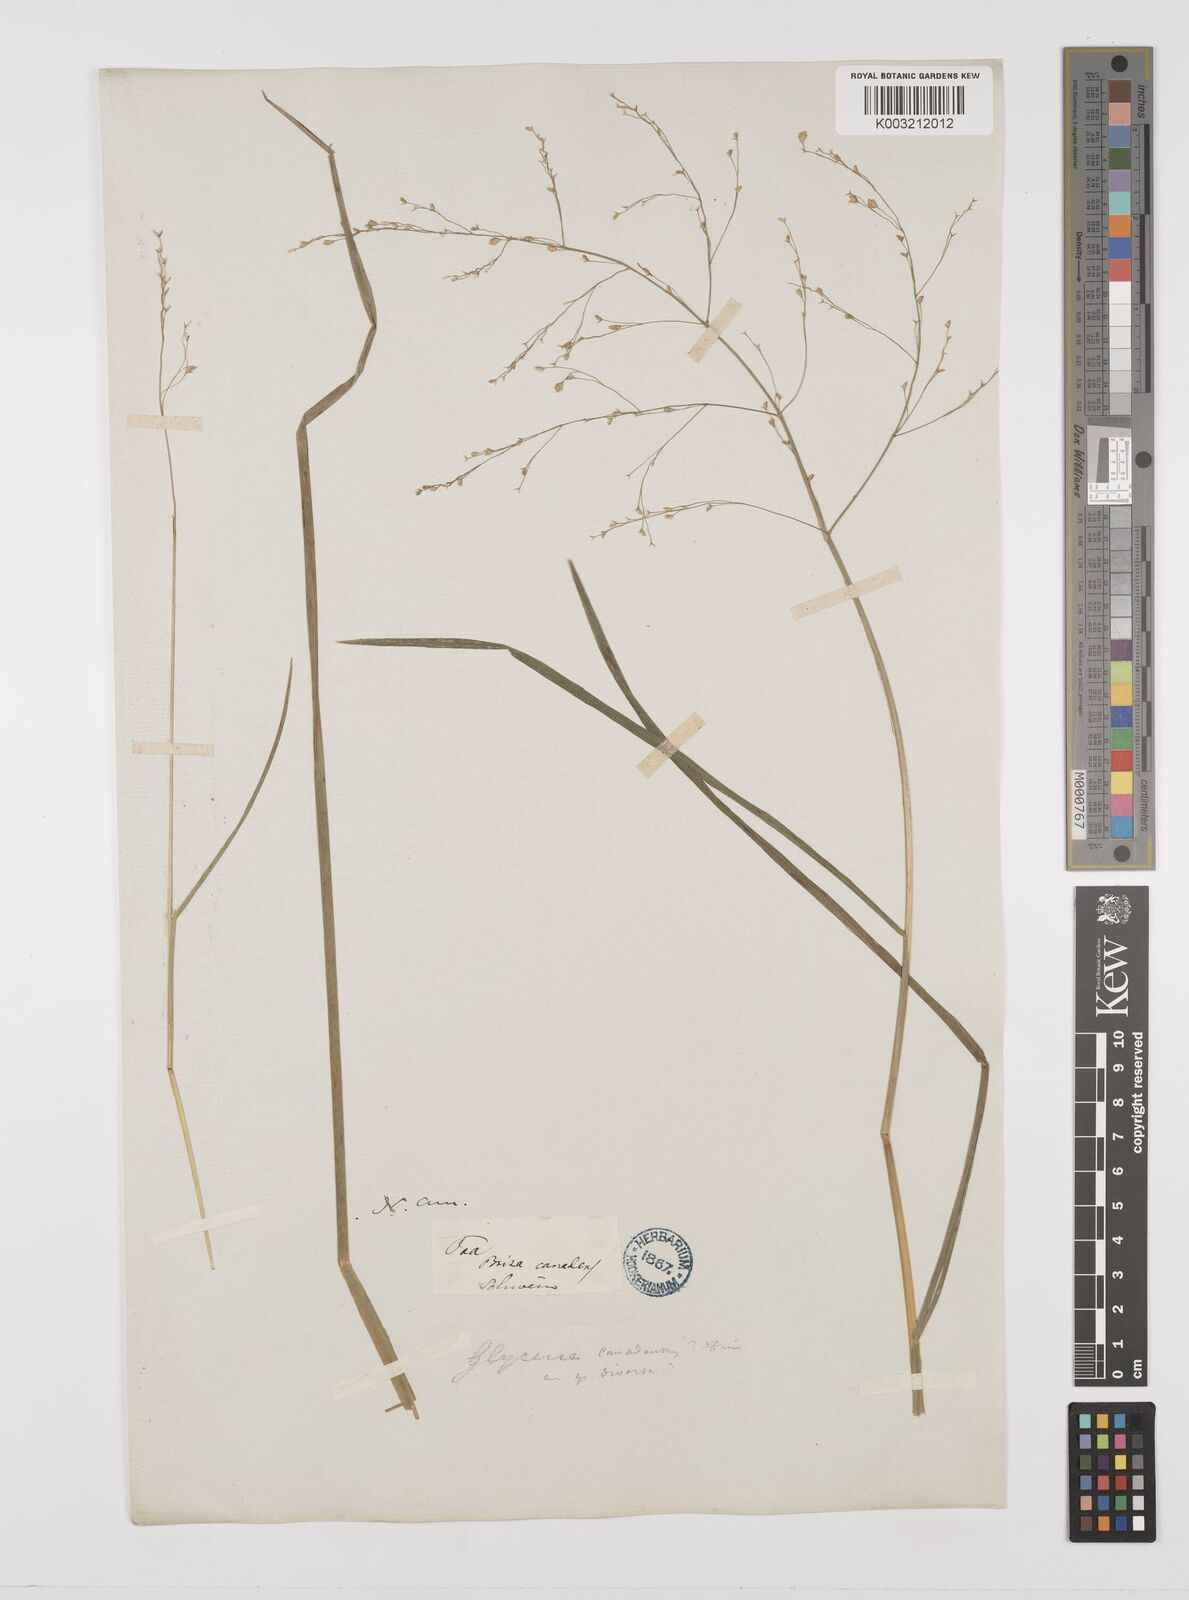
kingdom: Plantae
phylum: Tracheophyta
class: Liliopsida
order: Poales
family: Poaceae
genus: Glyceria
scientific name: Glyceria canadensis
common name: Canada mannagrass
